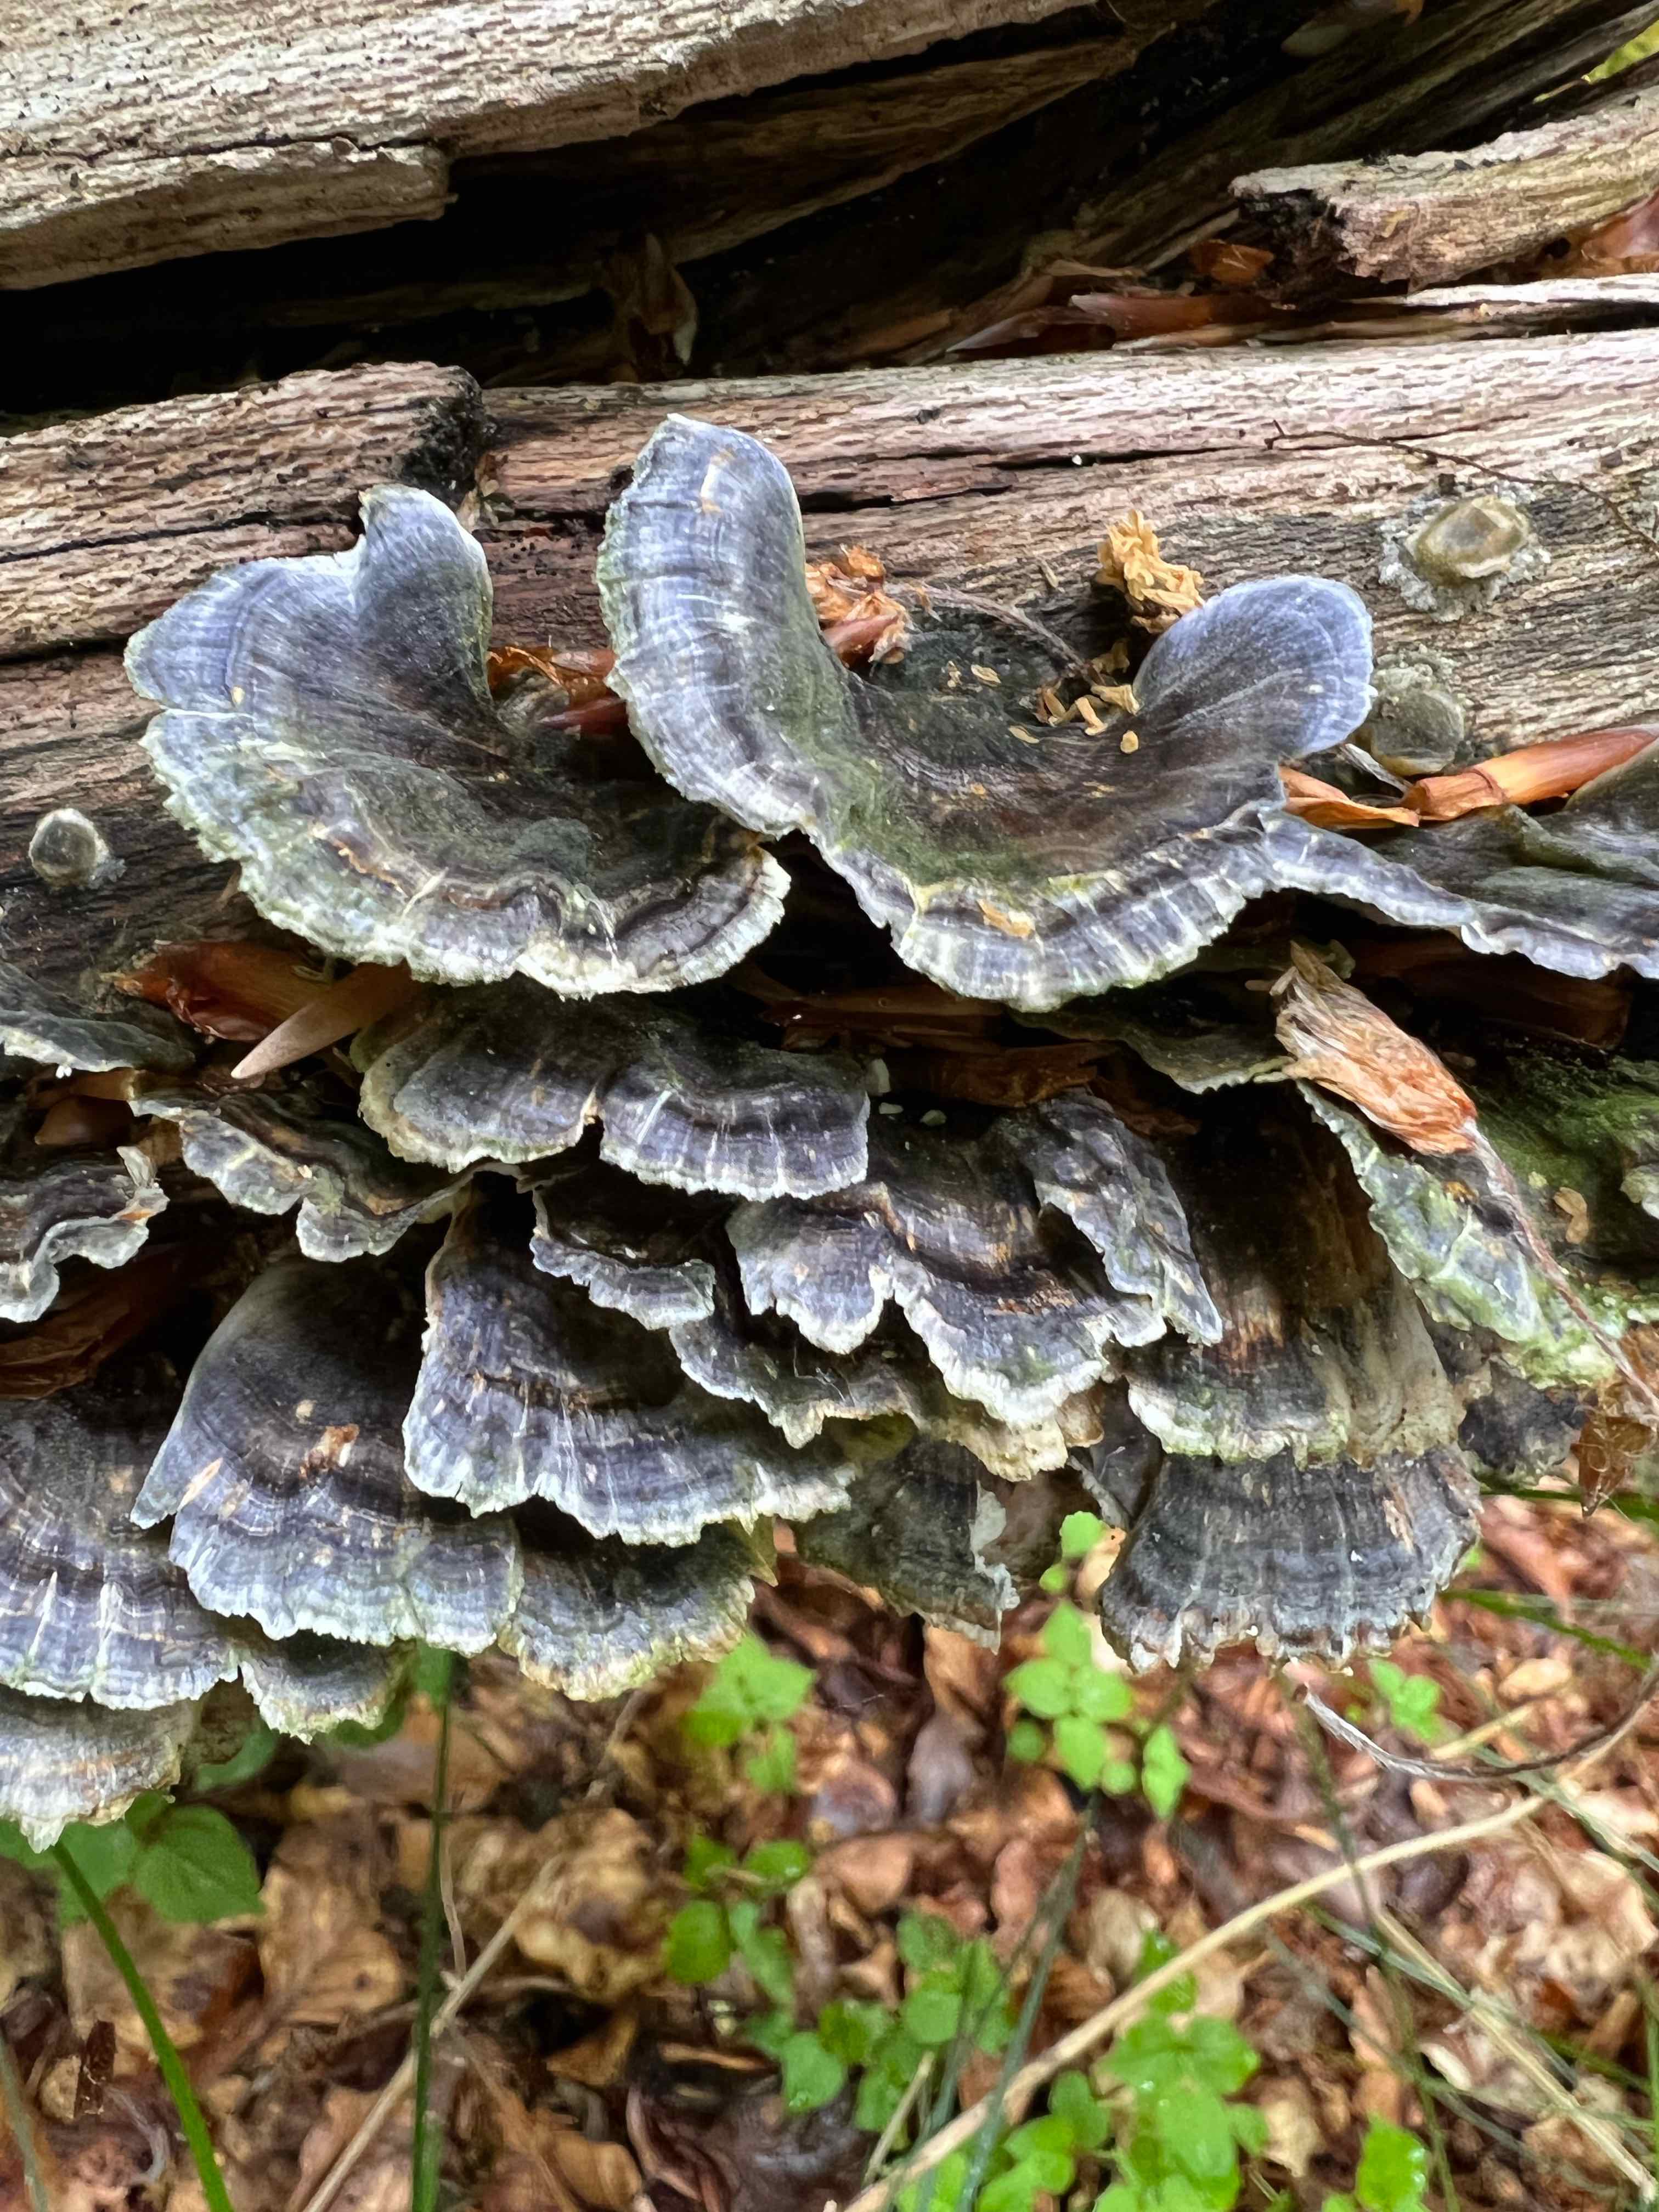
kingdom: Fungi
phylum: Basidiomycota
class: Agaricomycetes
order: Polyporales
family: Polyporaceae
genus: Trametes
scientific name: Trametes versicolor
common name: broget læderporesvamp
